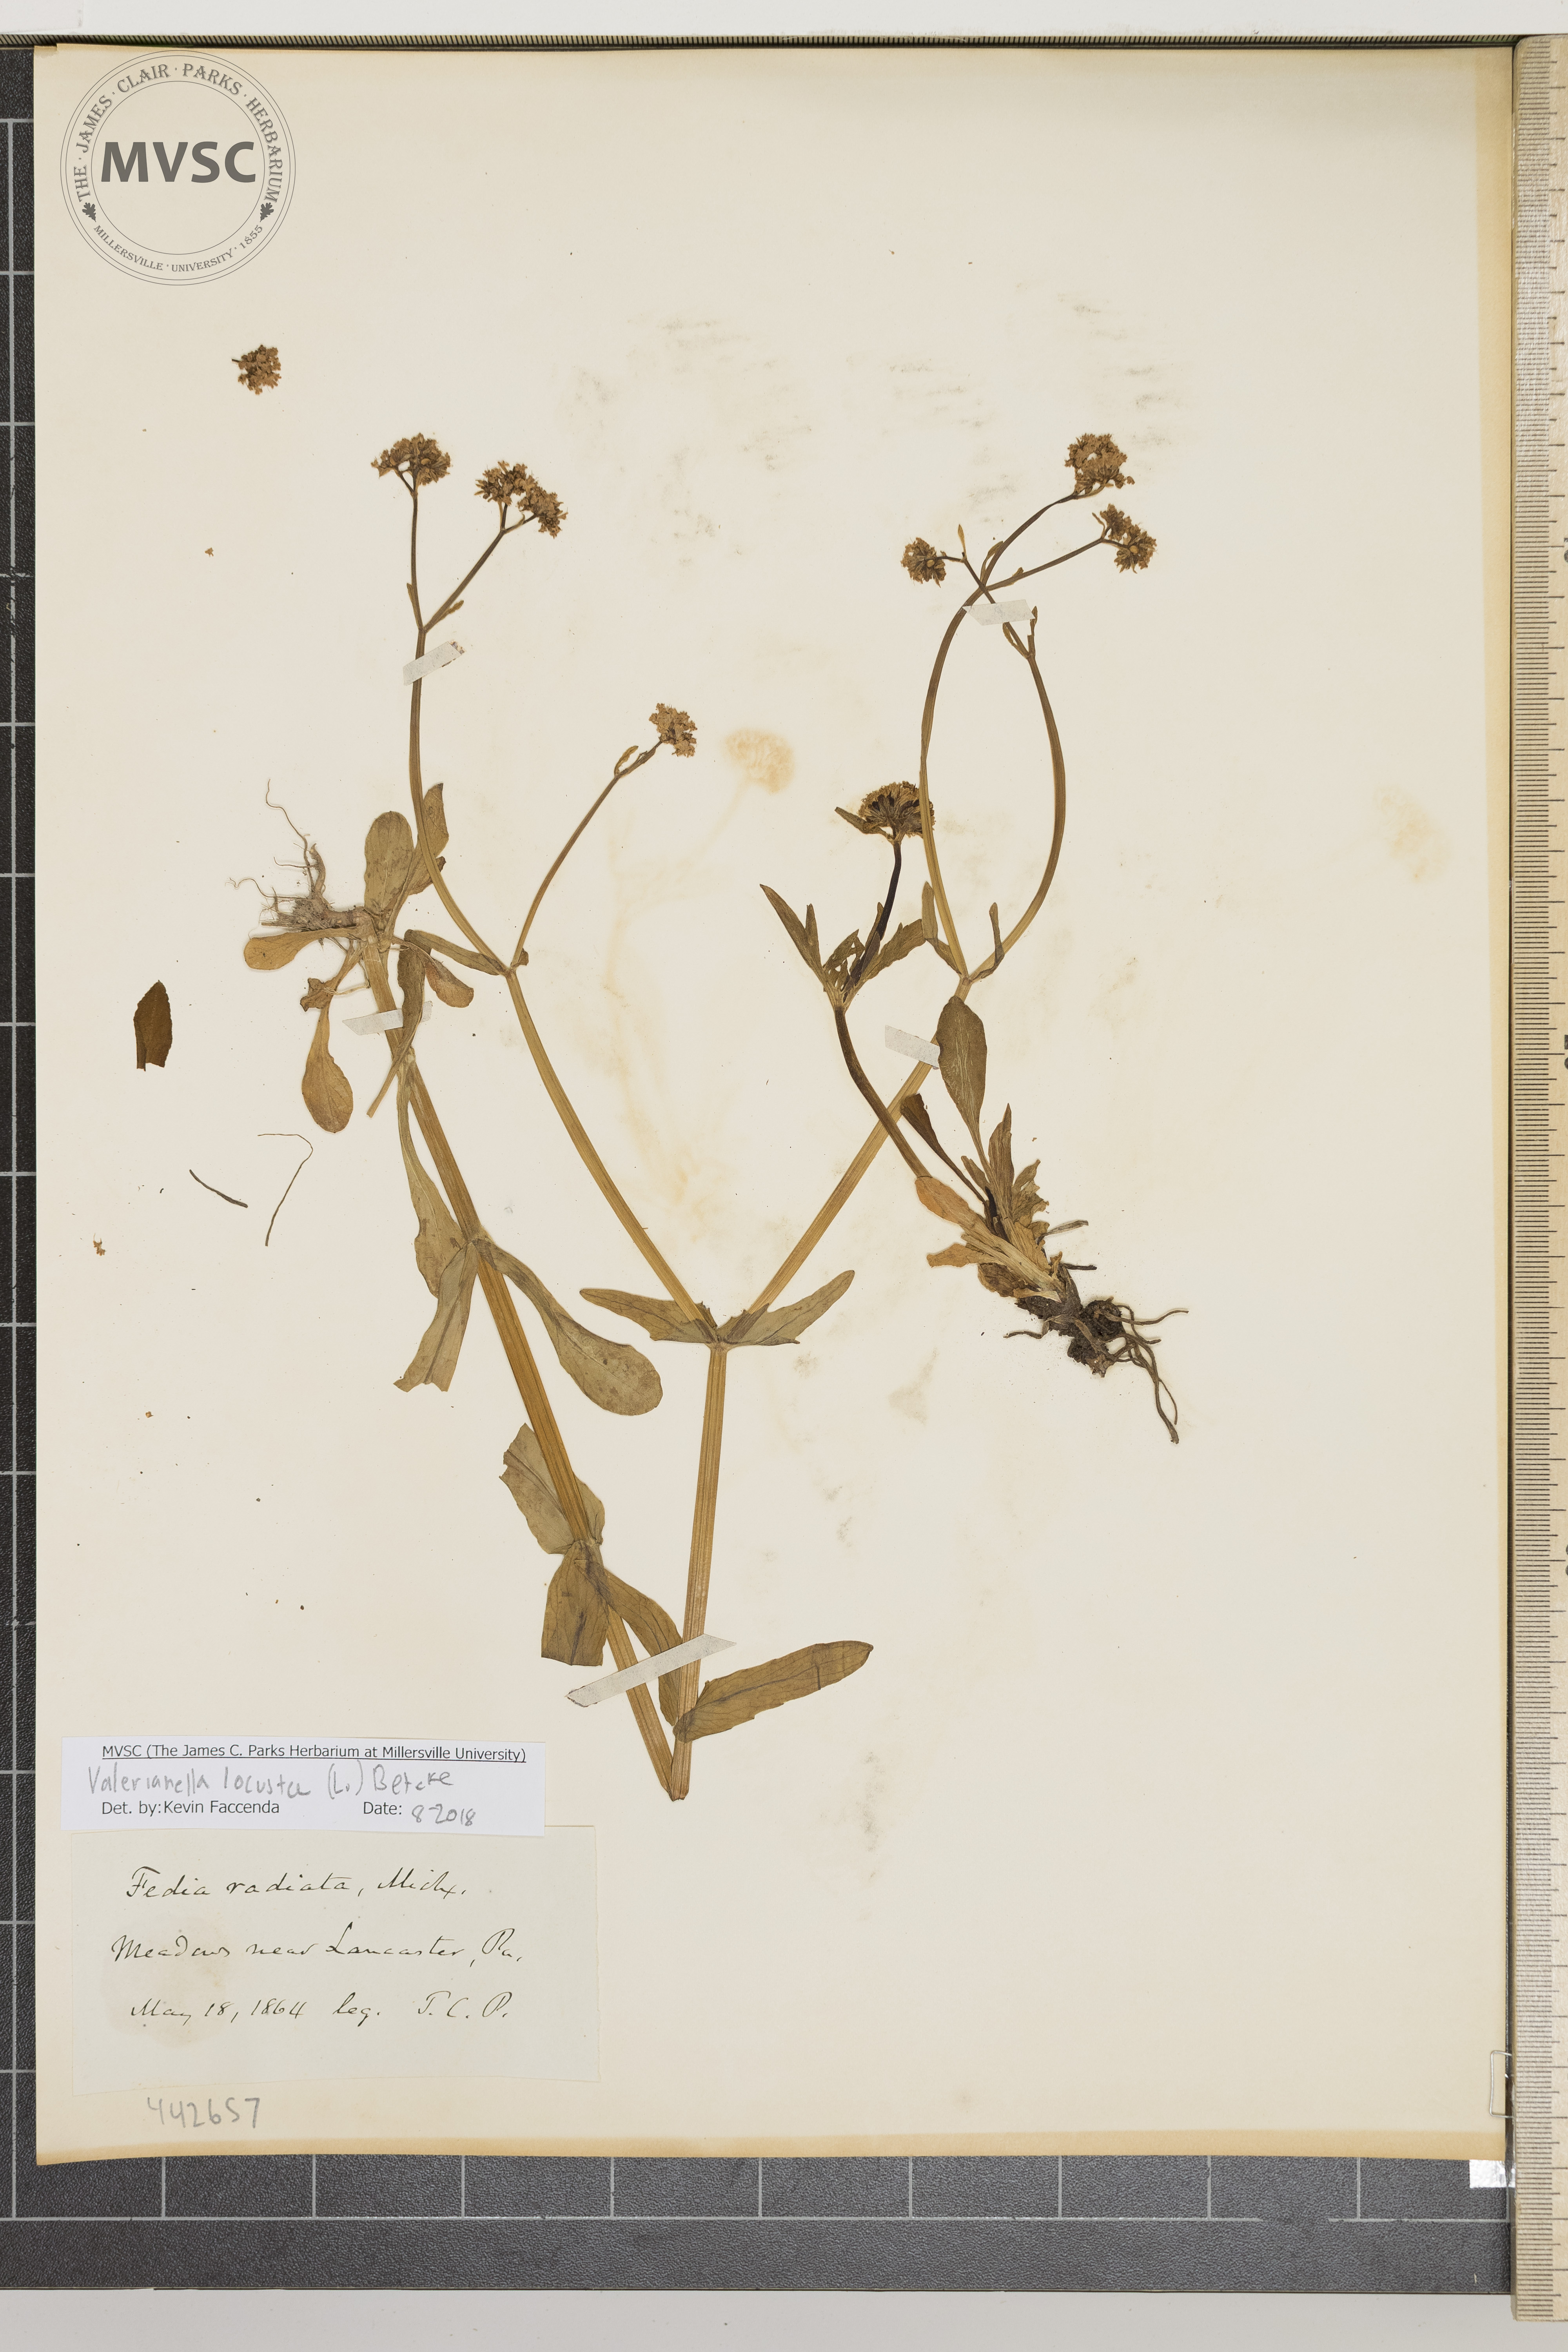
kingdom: Plantae
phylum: Tracheophyta
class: Magnoliopsida
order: Dipsacales
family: Caprifoliaceae
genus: Valerianella
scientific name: Valerianella locusta
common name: Common cornsalad
